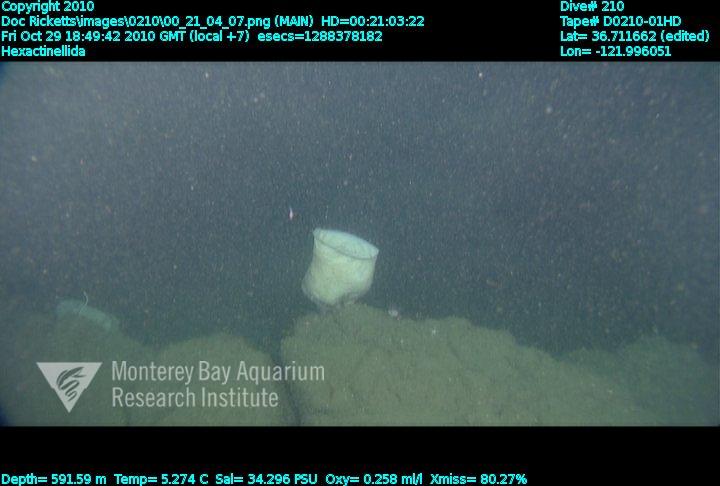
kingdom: Animalia
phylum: Porifera
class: Hexactinellida
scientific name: Hexactinellida
